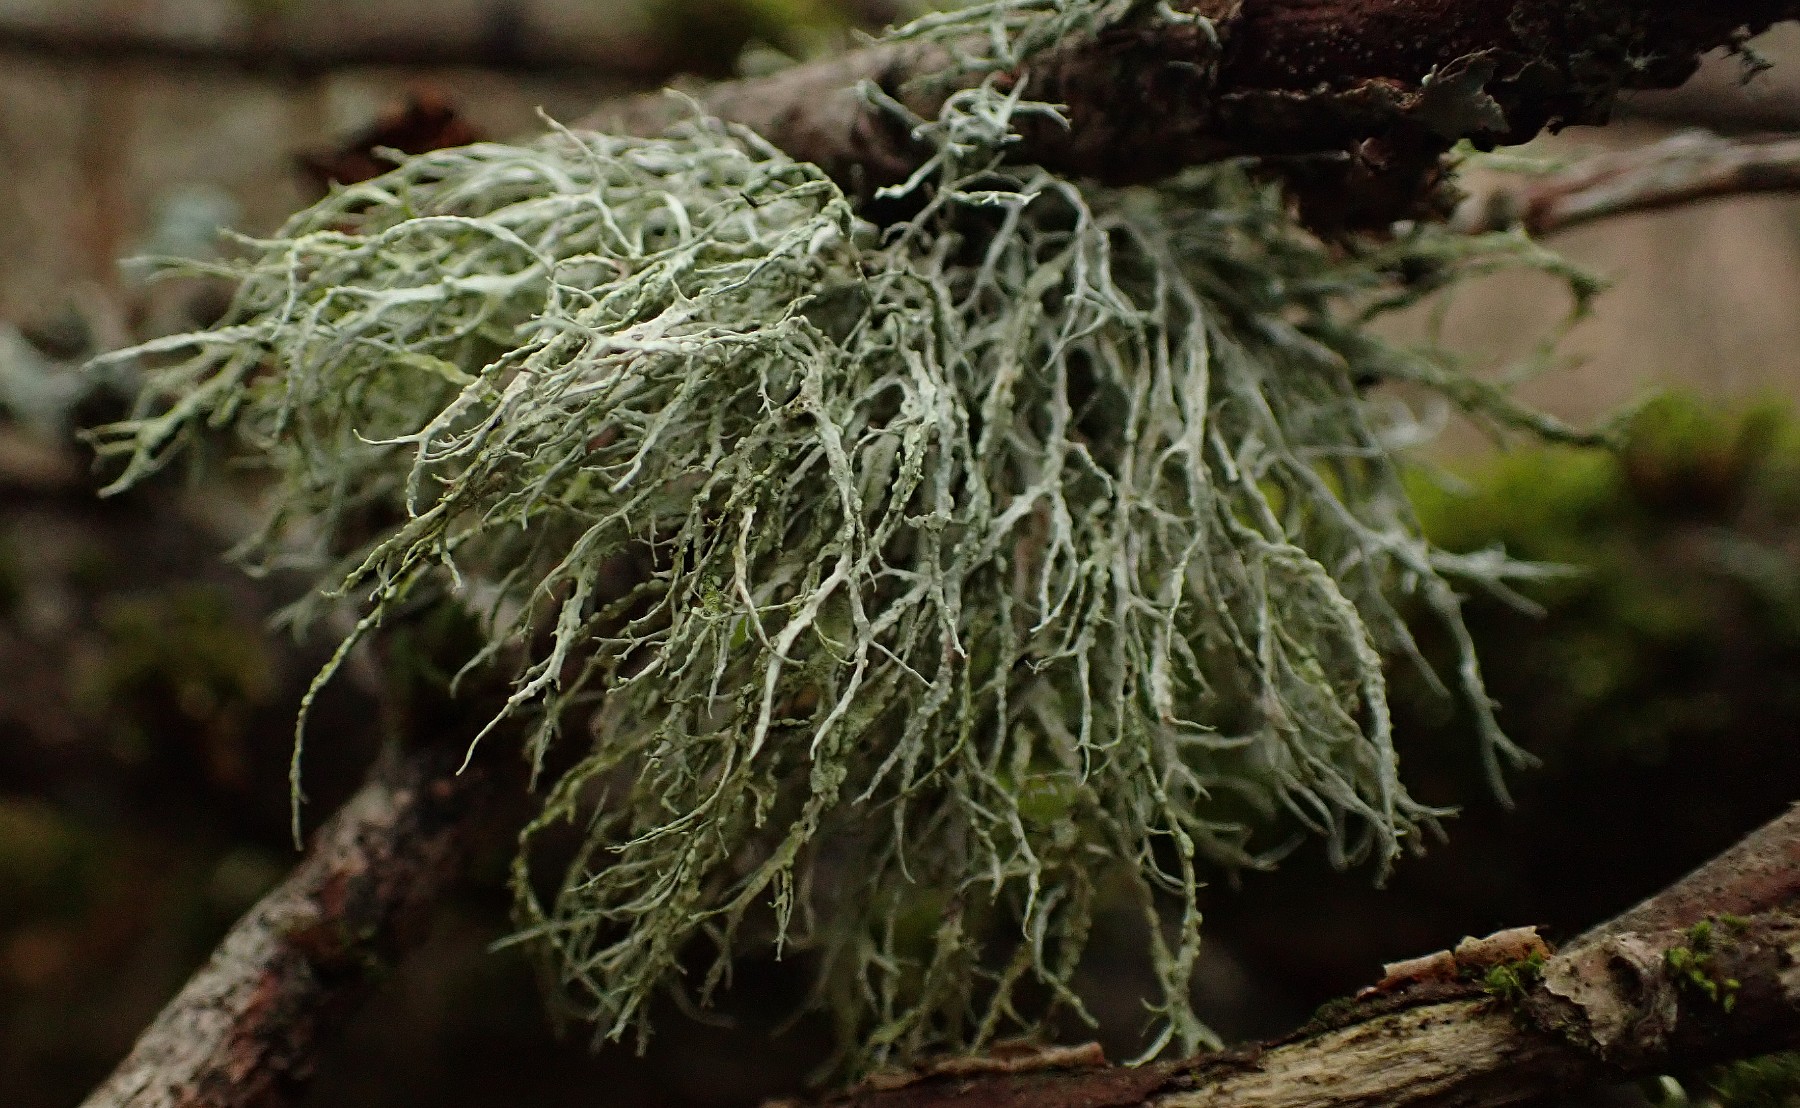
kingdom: Fungi
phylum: Ascomycota
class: Lecanoromycetes
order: Lecanorales
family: Ramalinaceae
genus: Ramalina
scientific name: Ramalina farinacea
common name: melet grenlav
